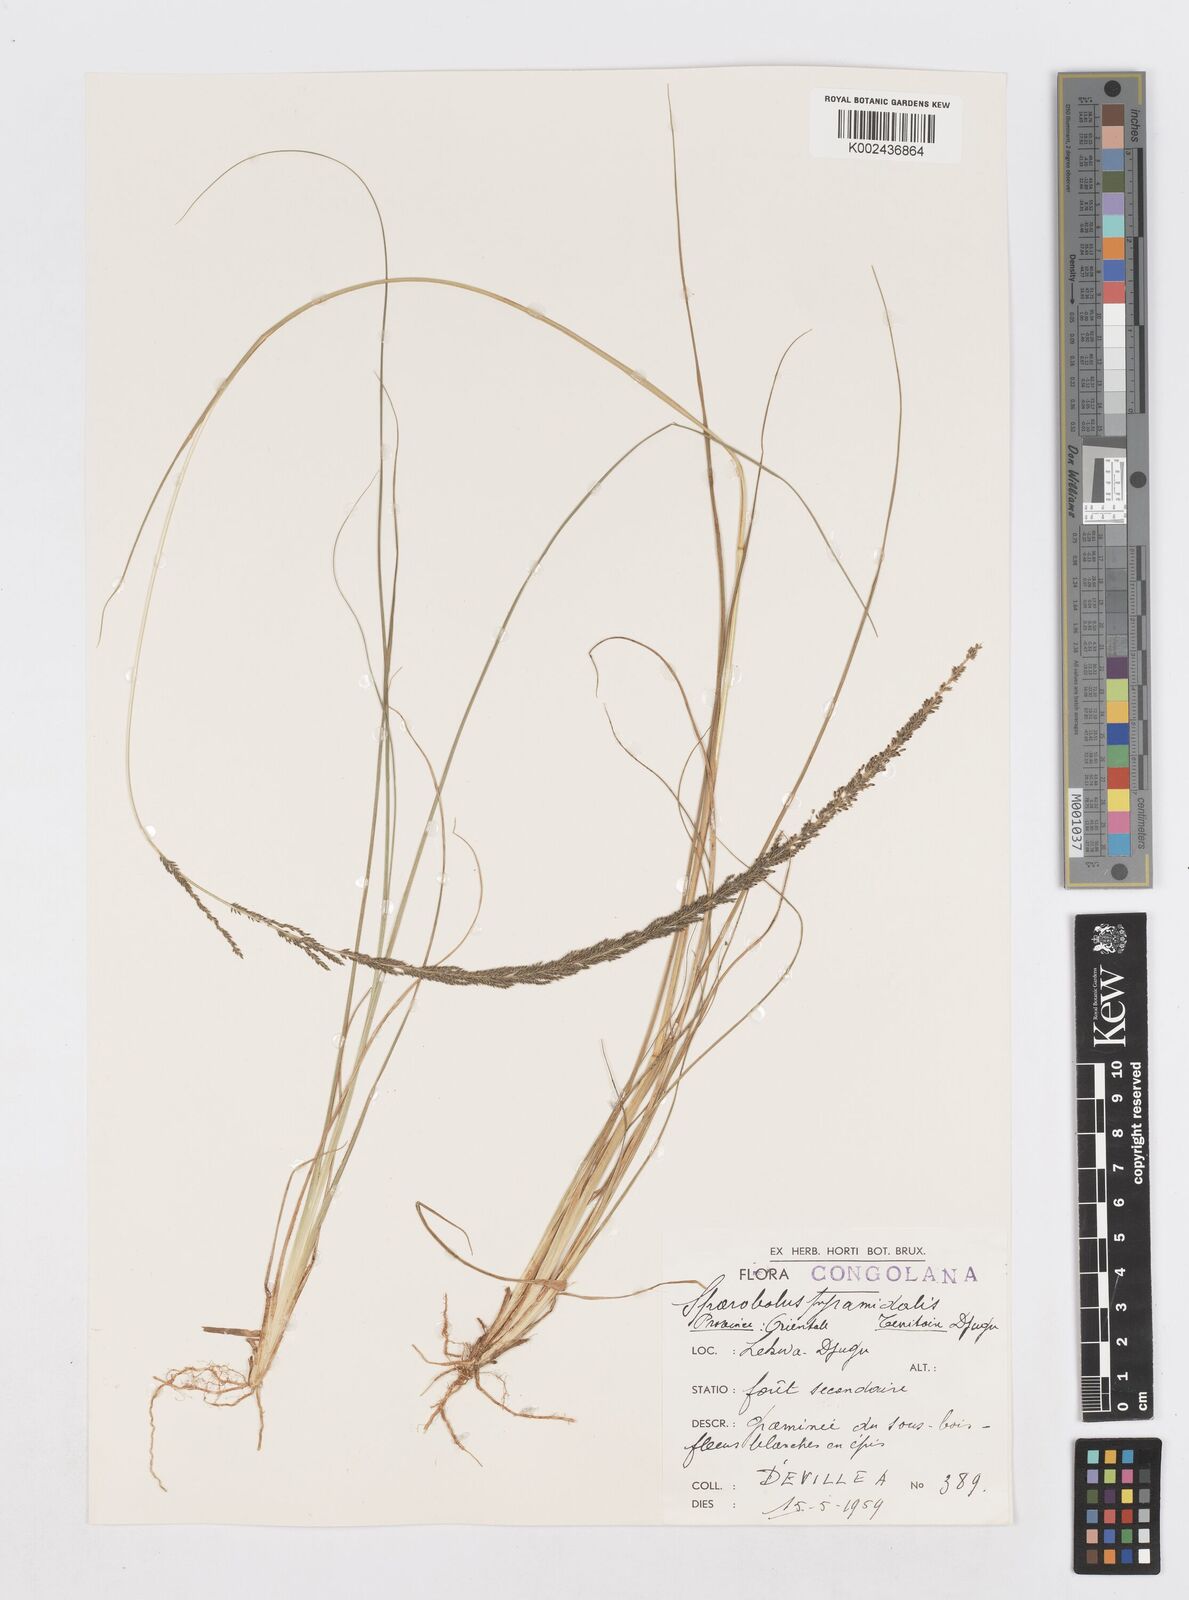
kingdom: Plantae
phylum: Tracheophyta
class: Liliopsida
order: Poales
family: Poaceae
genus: Sporobolus
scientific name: Sporobolus africanus
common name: African dropseed
